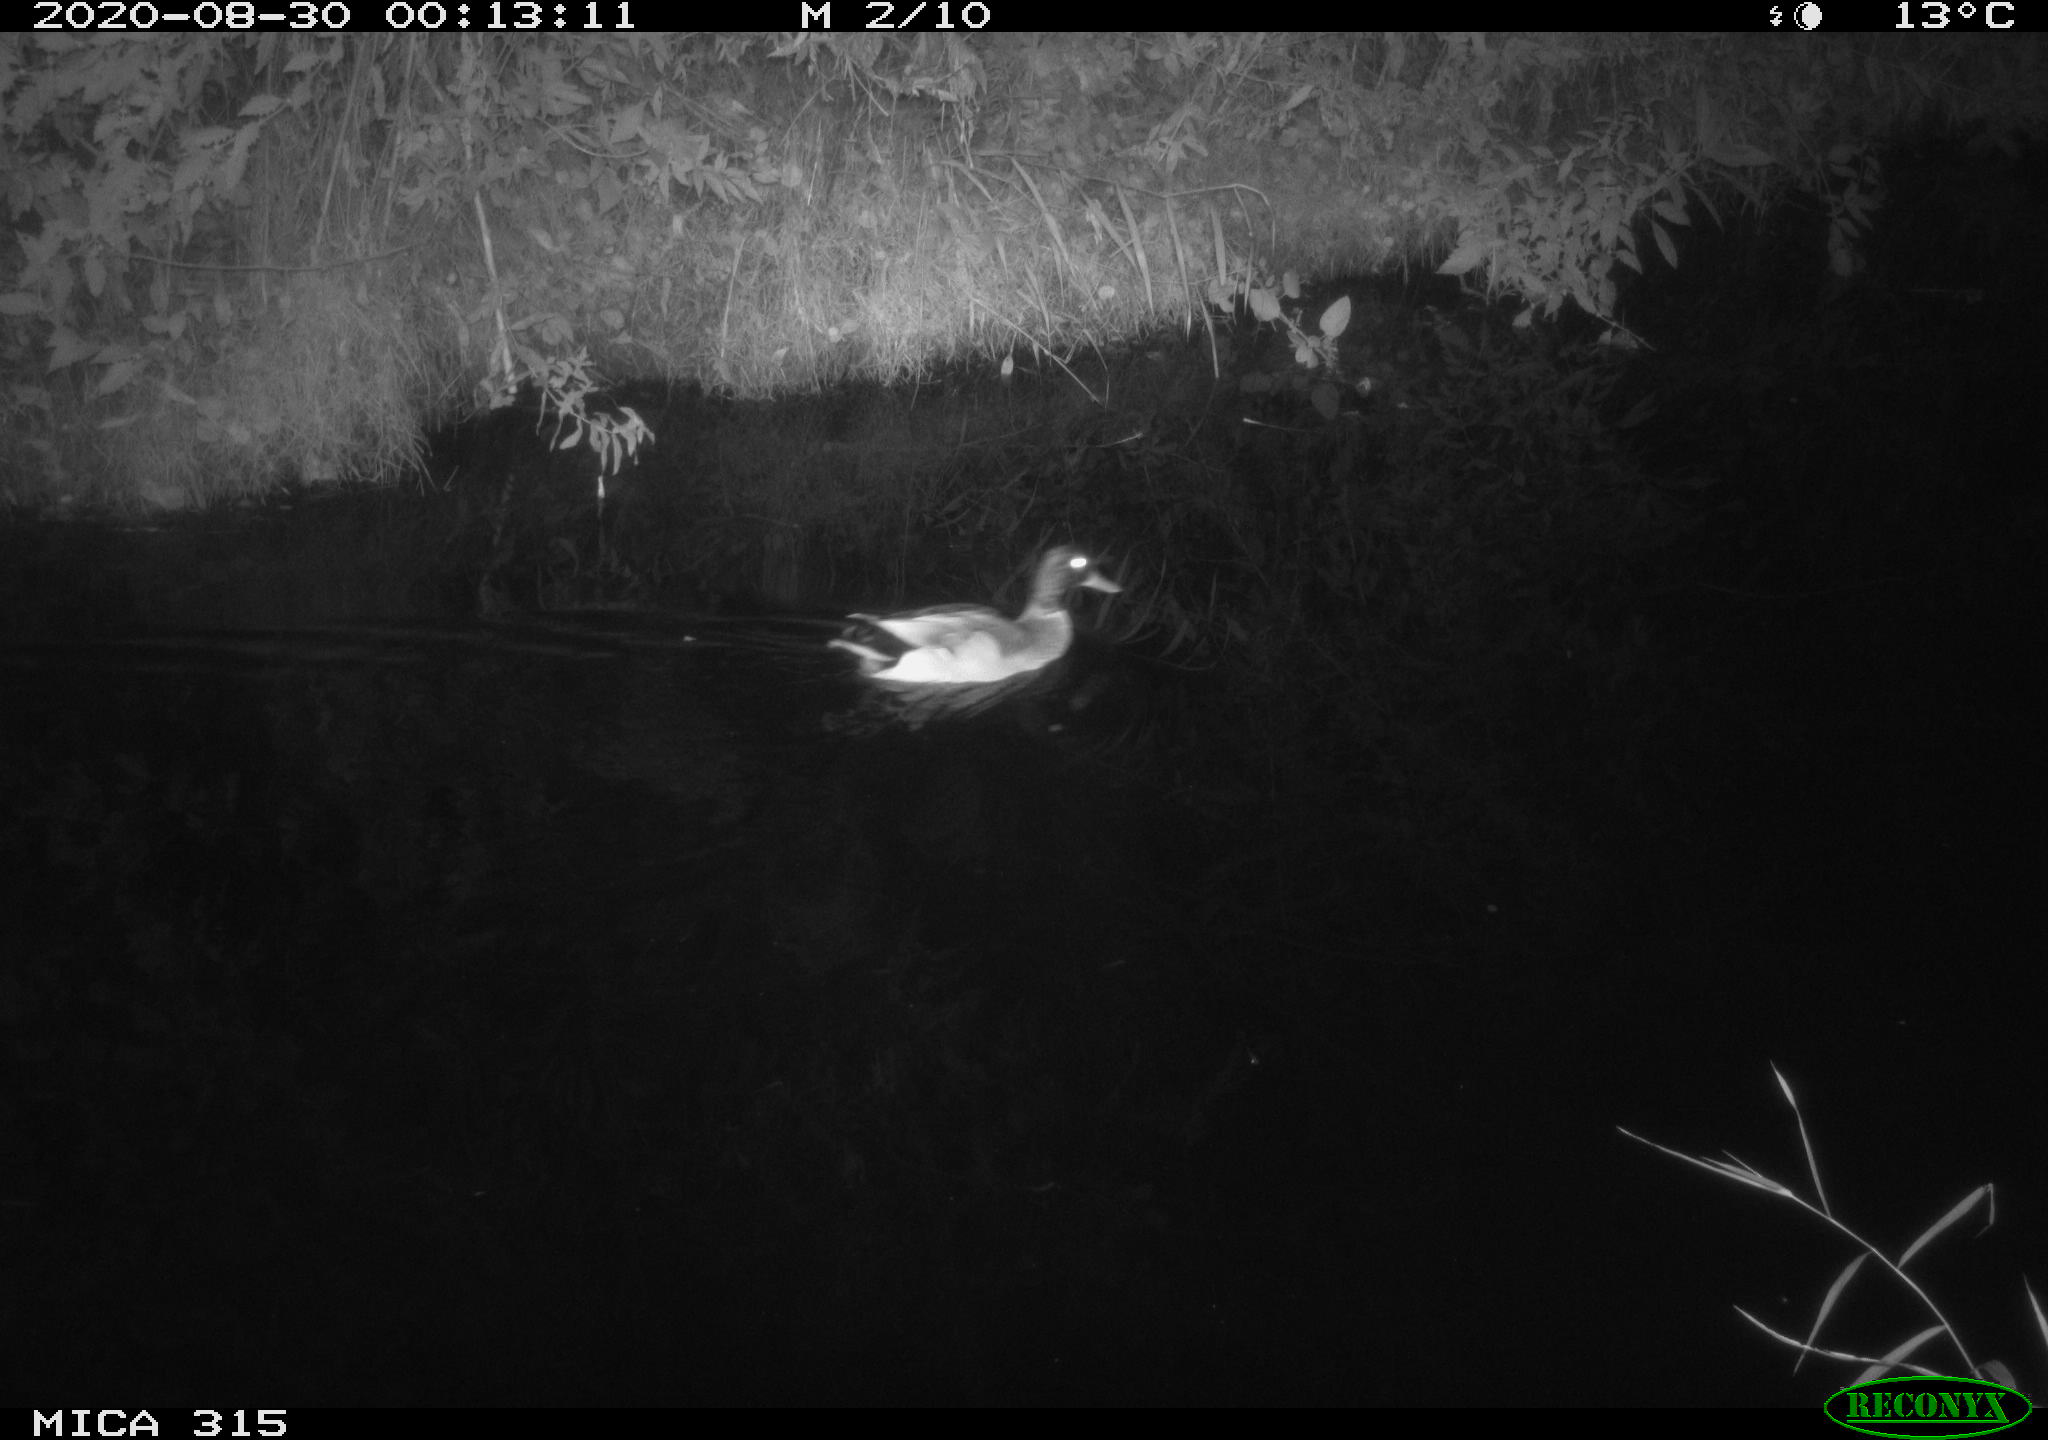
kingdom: Animalia
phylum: Chordata
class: Aves
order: Anseriformes
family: Anatidae
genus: Anas
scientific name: Anas platyrhynchos
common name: Mallard
